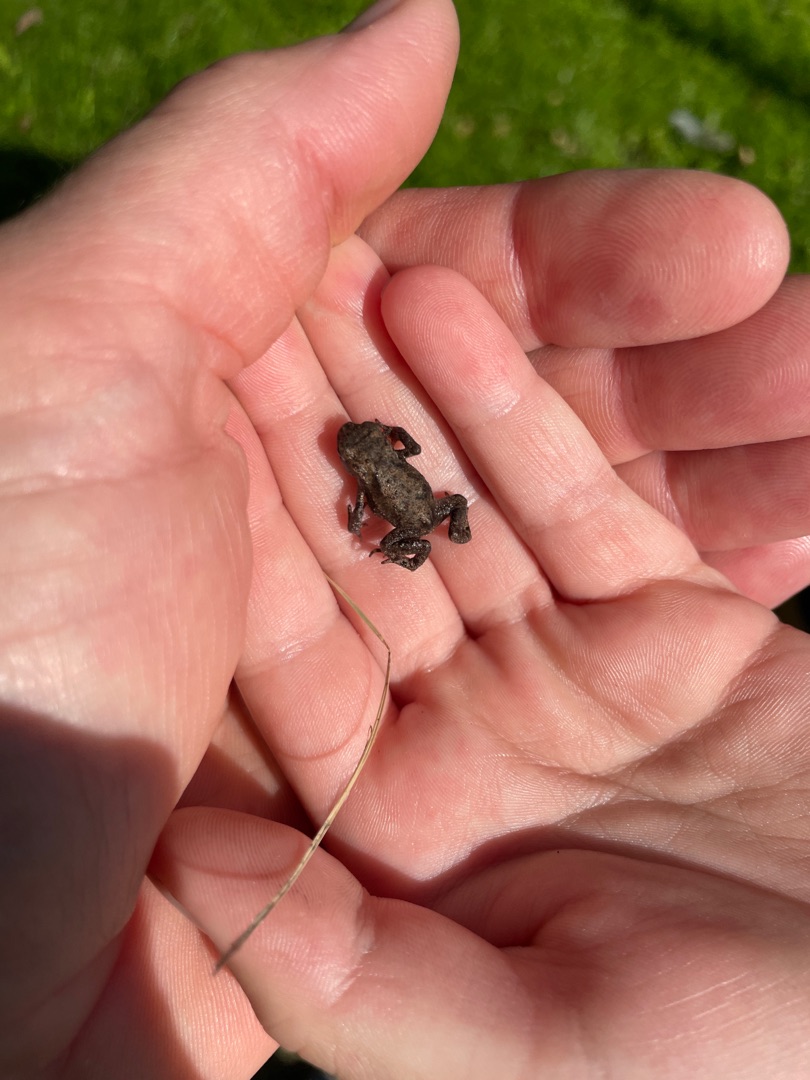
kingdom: Animalia
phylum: Chordata
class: Amphibia
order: Anura
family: Bufonidae
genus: Bufo
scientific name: Bufo bufo
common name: Skrubtudse
